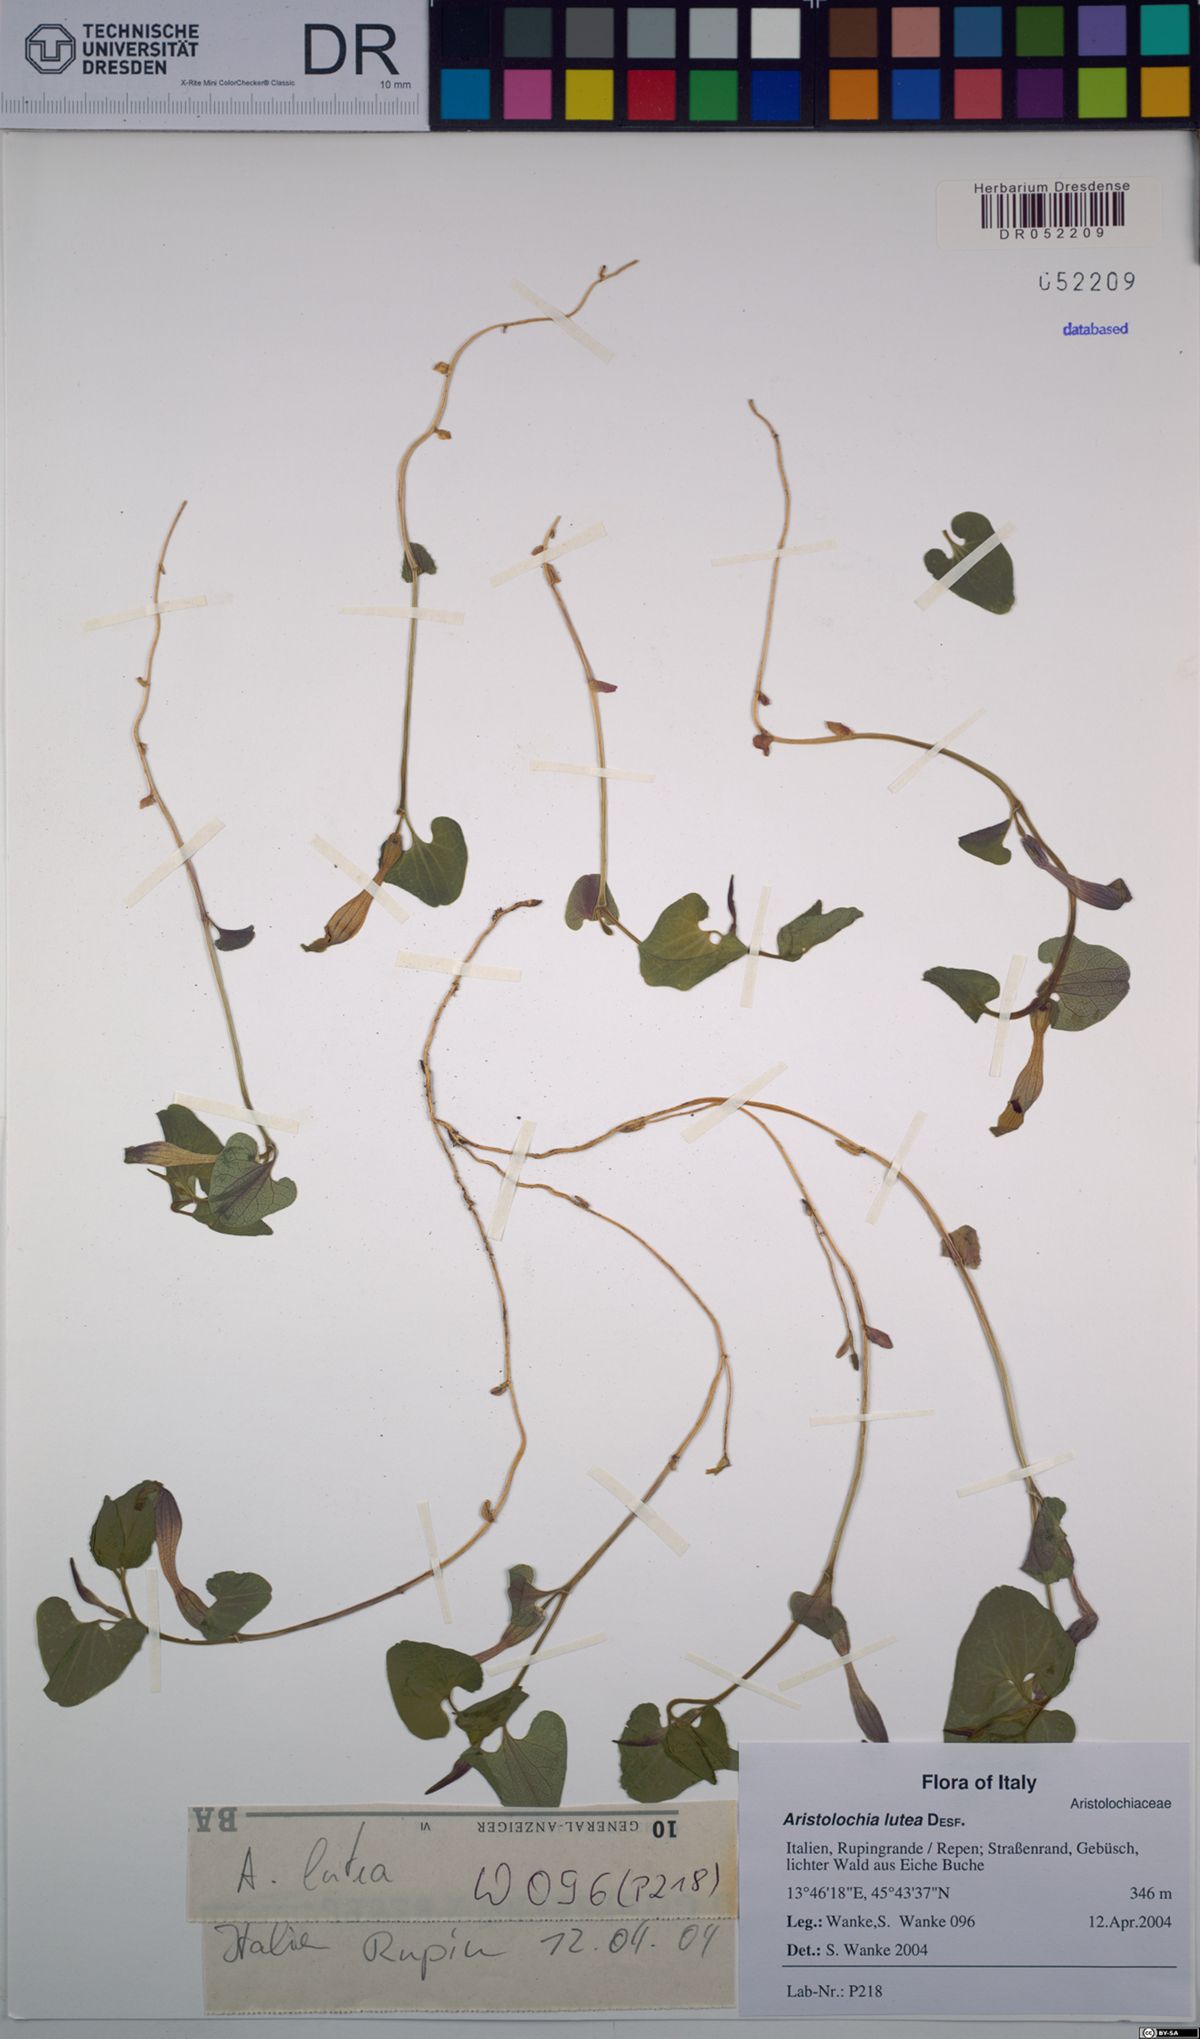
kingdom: Plantae
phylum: Tracheophyta
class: Magnoliopsida
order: Piperales
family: Aristolochiaceae
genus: Aristolochia
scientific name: Aristolochia lutea
